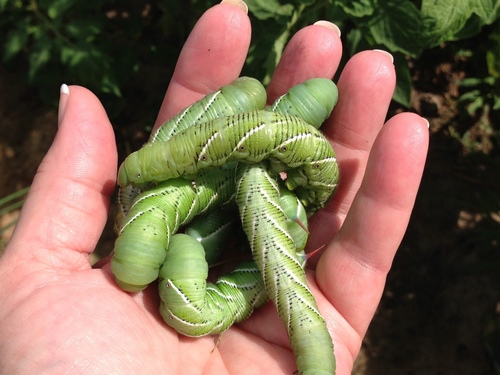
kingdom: Animalia
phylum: Arthropoda
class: Insecta
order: Lepidoptera
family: Sphingidae
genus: Manduca
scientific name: Manduca sexta
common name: Carolina sphinx
